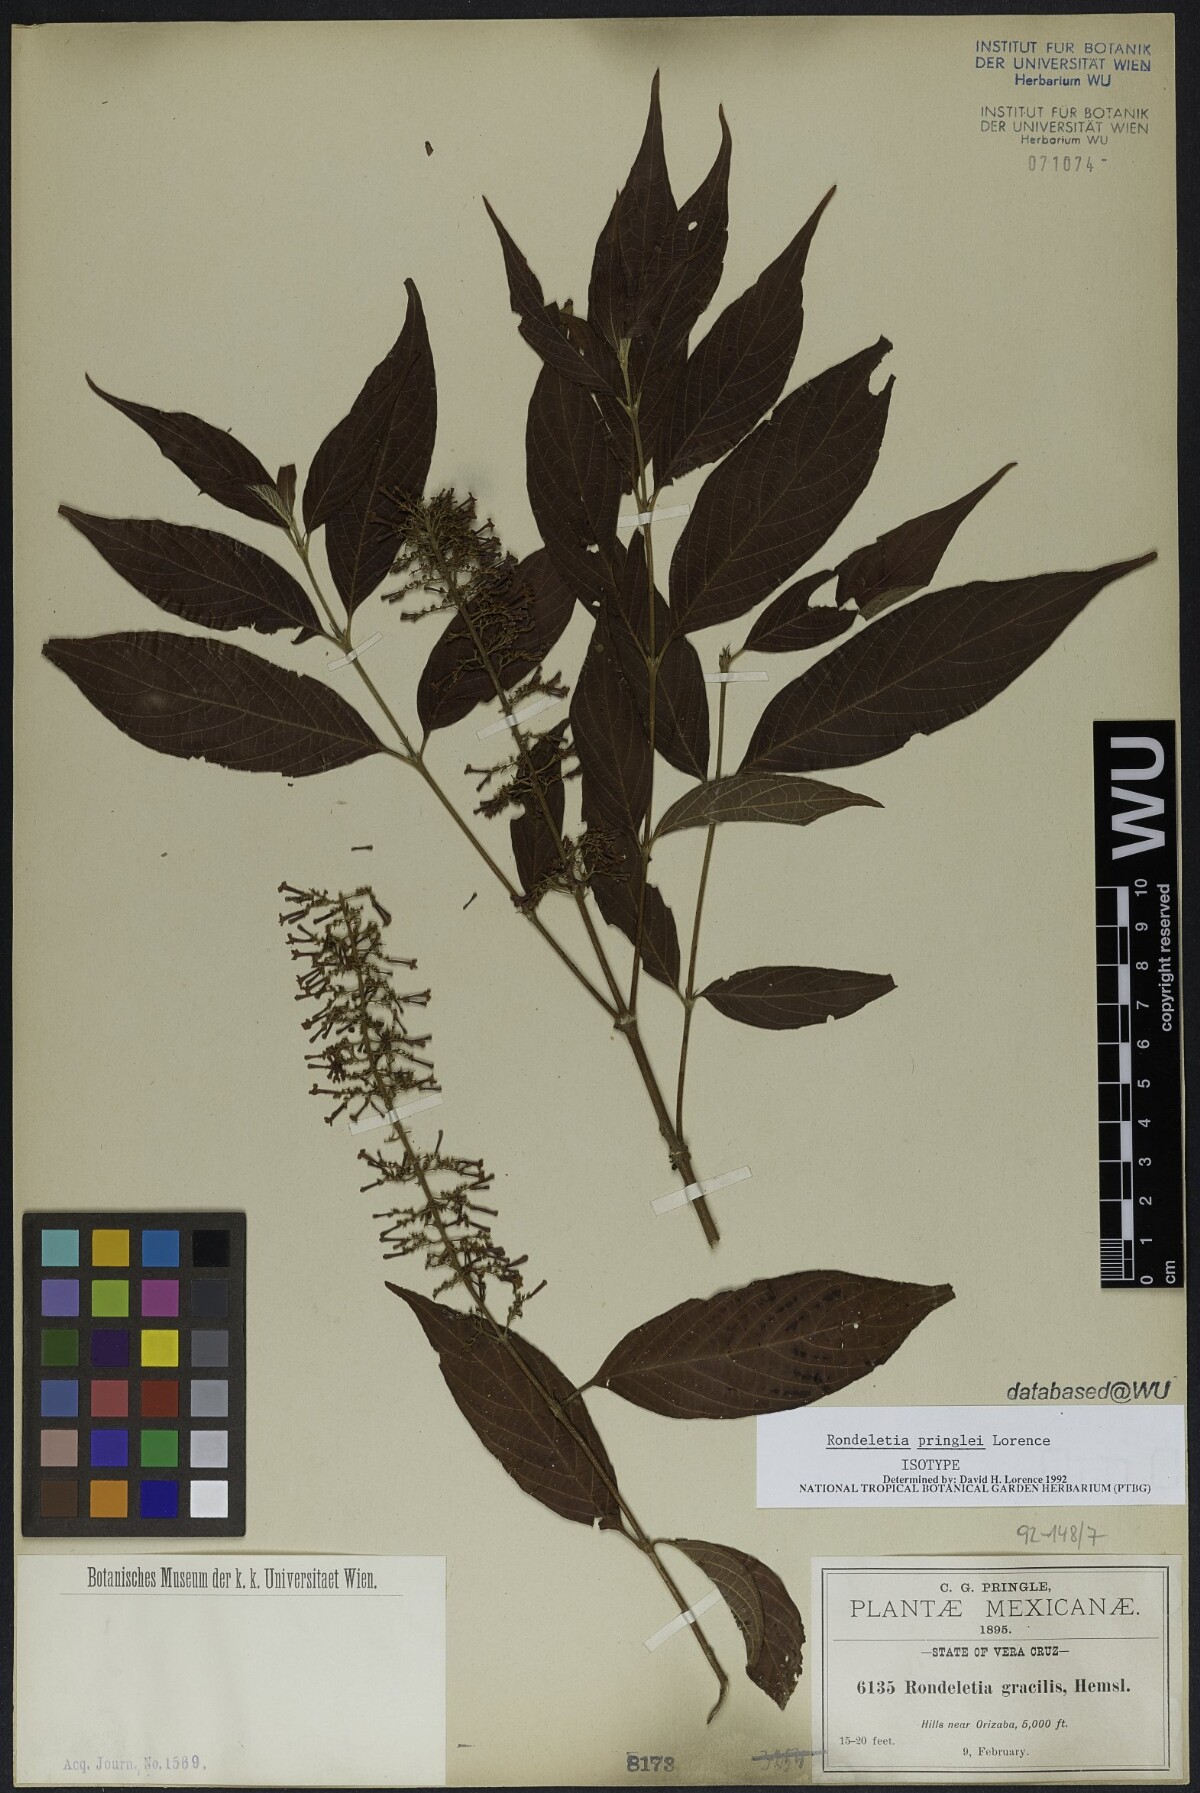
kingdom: Plantae
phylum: Tracheophyta
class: Magnoliopsida
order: Gentianales
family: Rubiaceae
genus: Arachnothryx
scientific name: Arachnothryx capitellata
